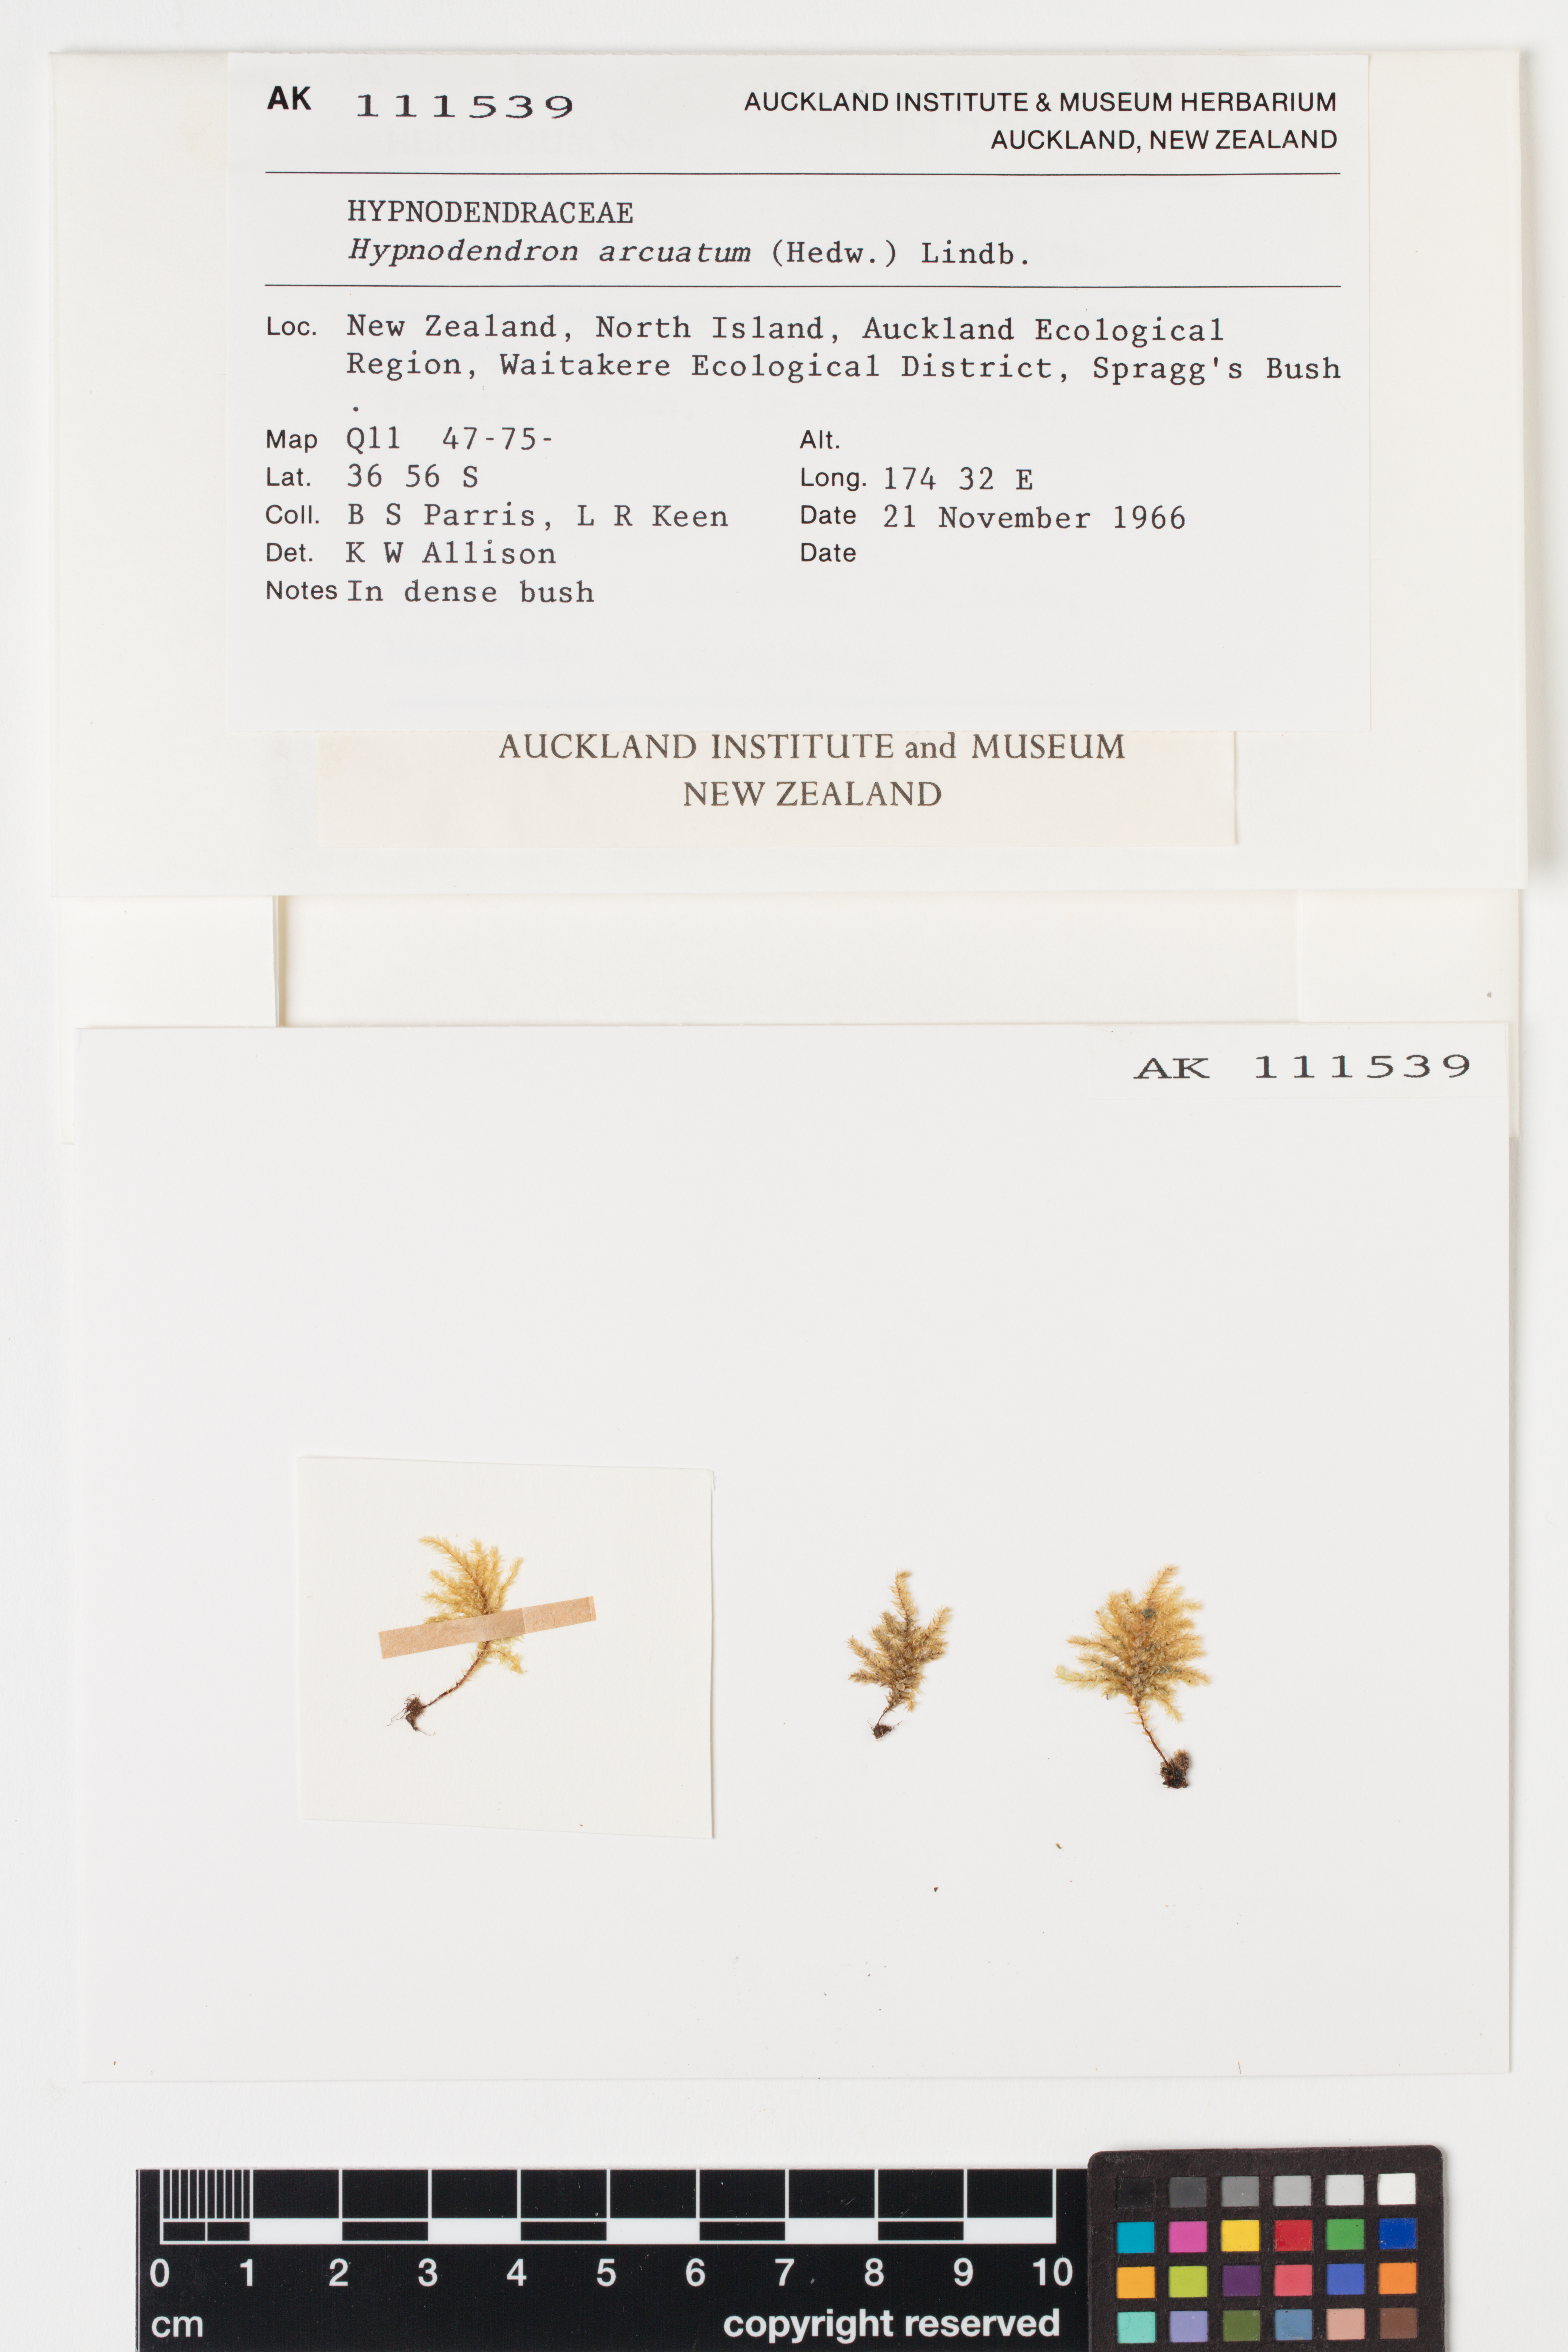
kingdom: Plantae
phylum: Bryophyta
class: Bryopsida
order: Hypnodendrales
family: Spiridentaceae
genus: Hypnodendron
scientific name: Hypnodendron arcuatum
